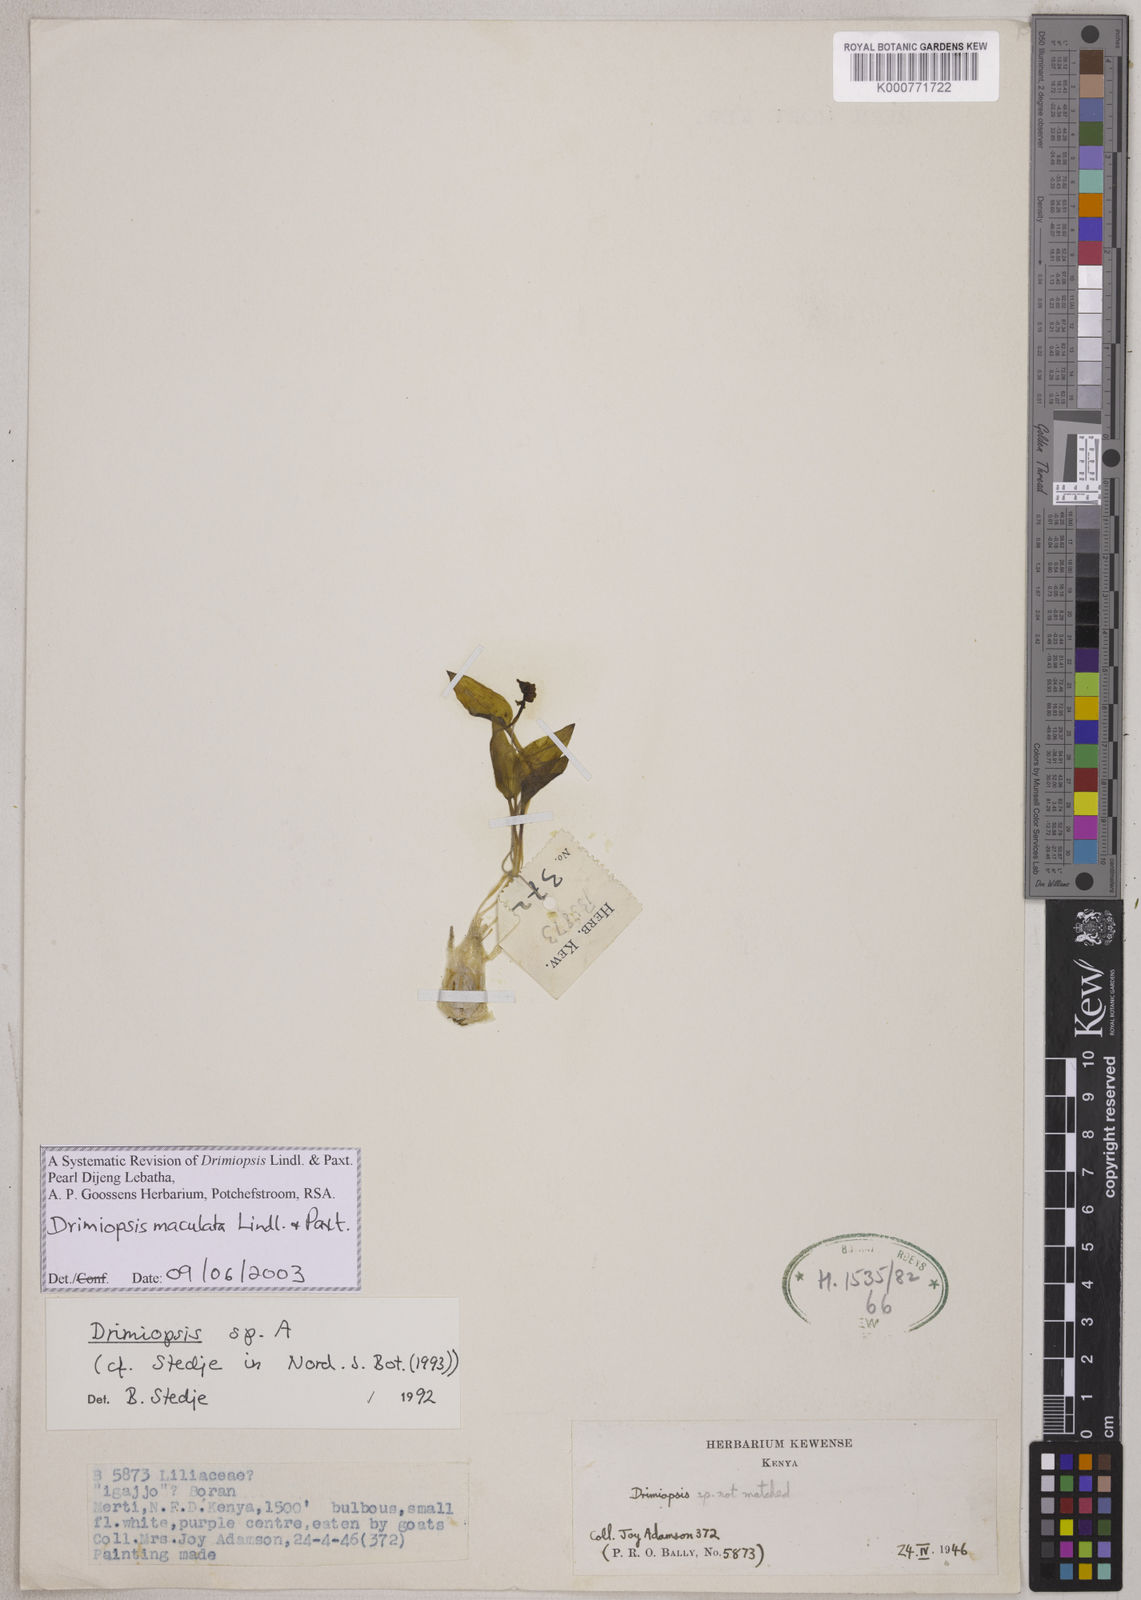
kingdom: Plantae
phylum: Tracheophyta
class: Liliopsida
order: Asparagales
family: Asparagaceae
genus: Drimiopsis
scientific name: Drimiopsis maculata
